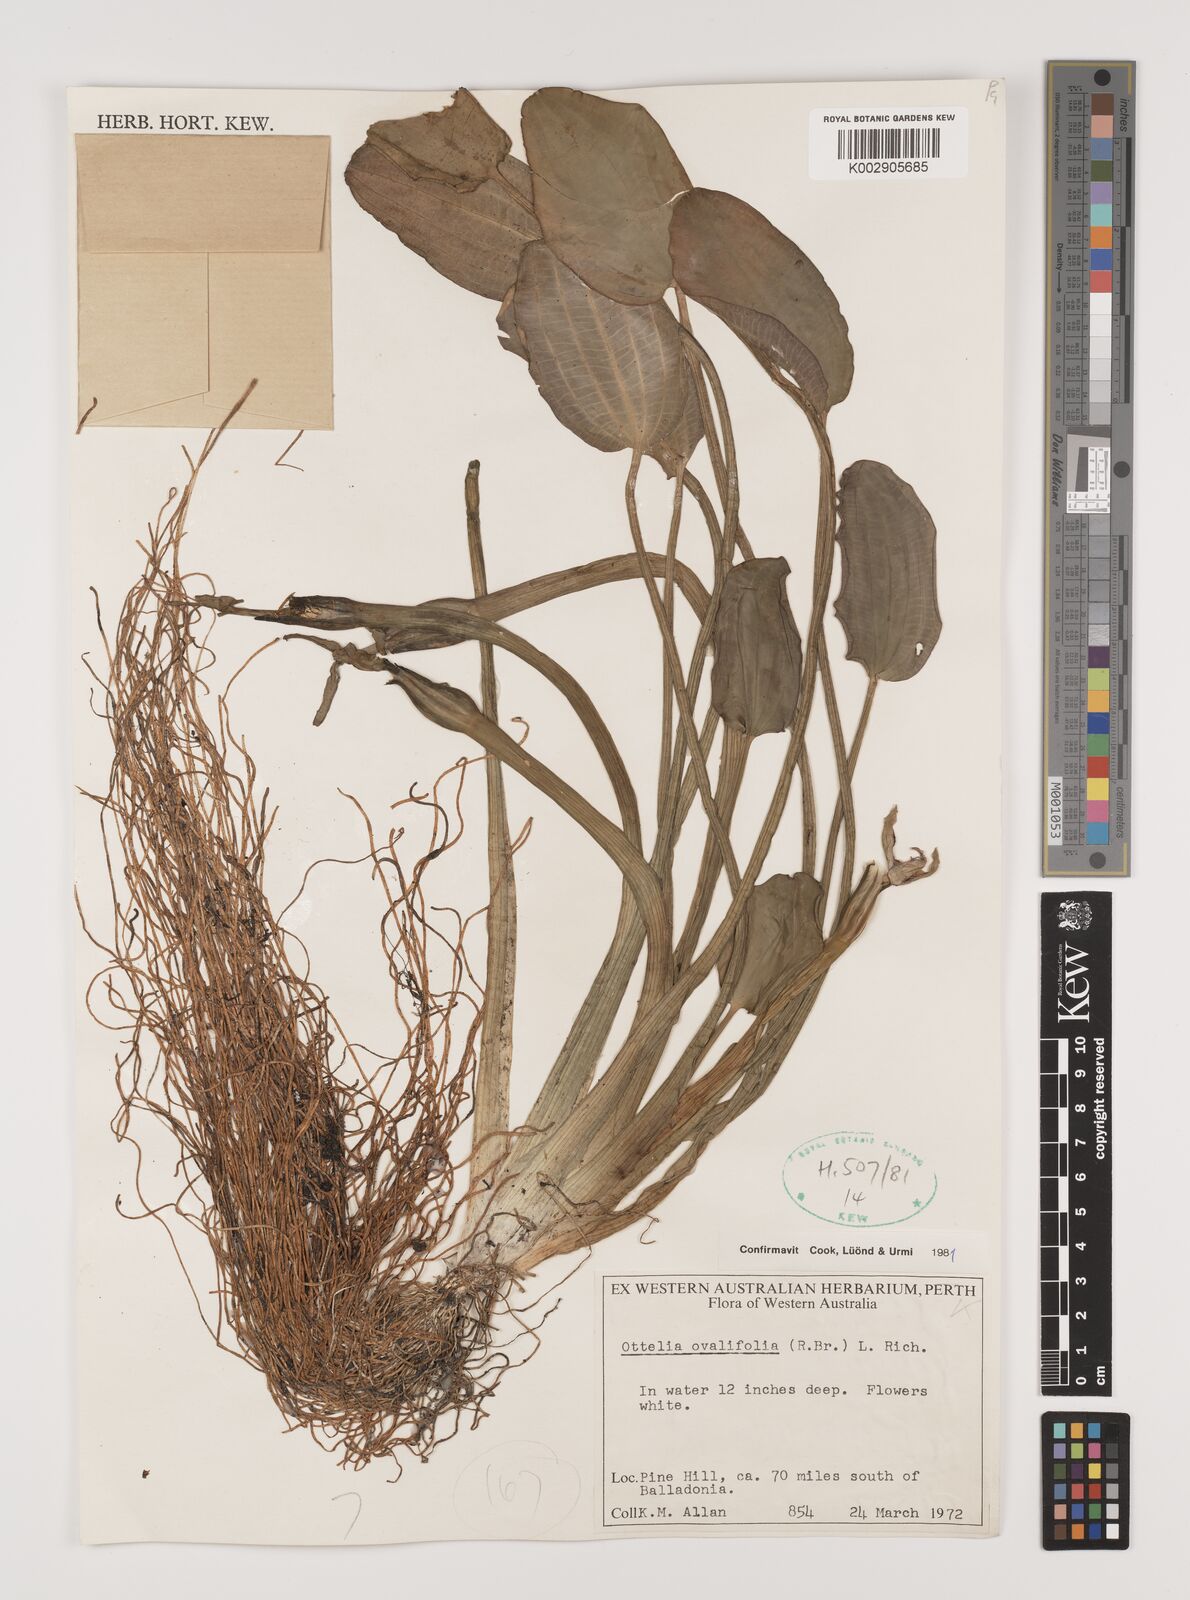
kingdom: Plantae
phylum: Tracheophyta
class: Liliopsida
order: Alismatales
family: Hydrocharitaceae
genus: Ottelia
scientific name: Ottelia ovalifolia
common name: Swamp-lily
